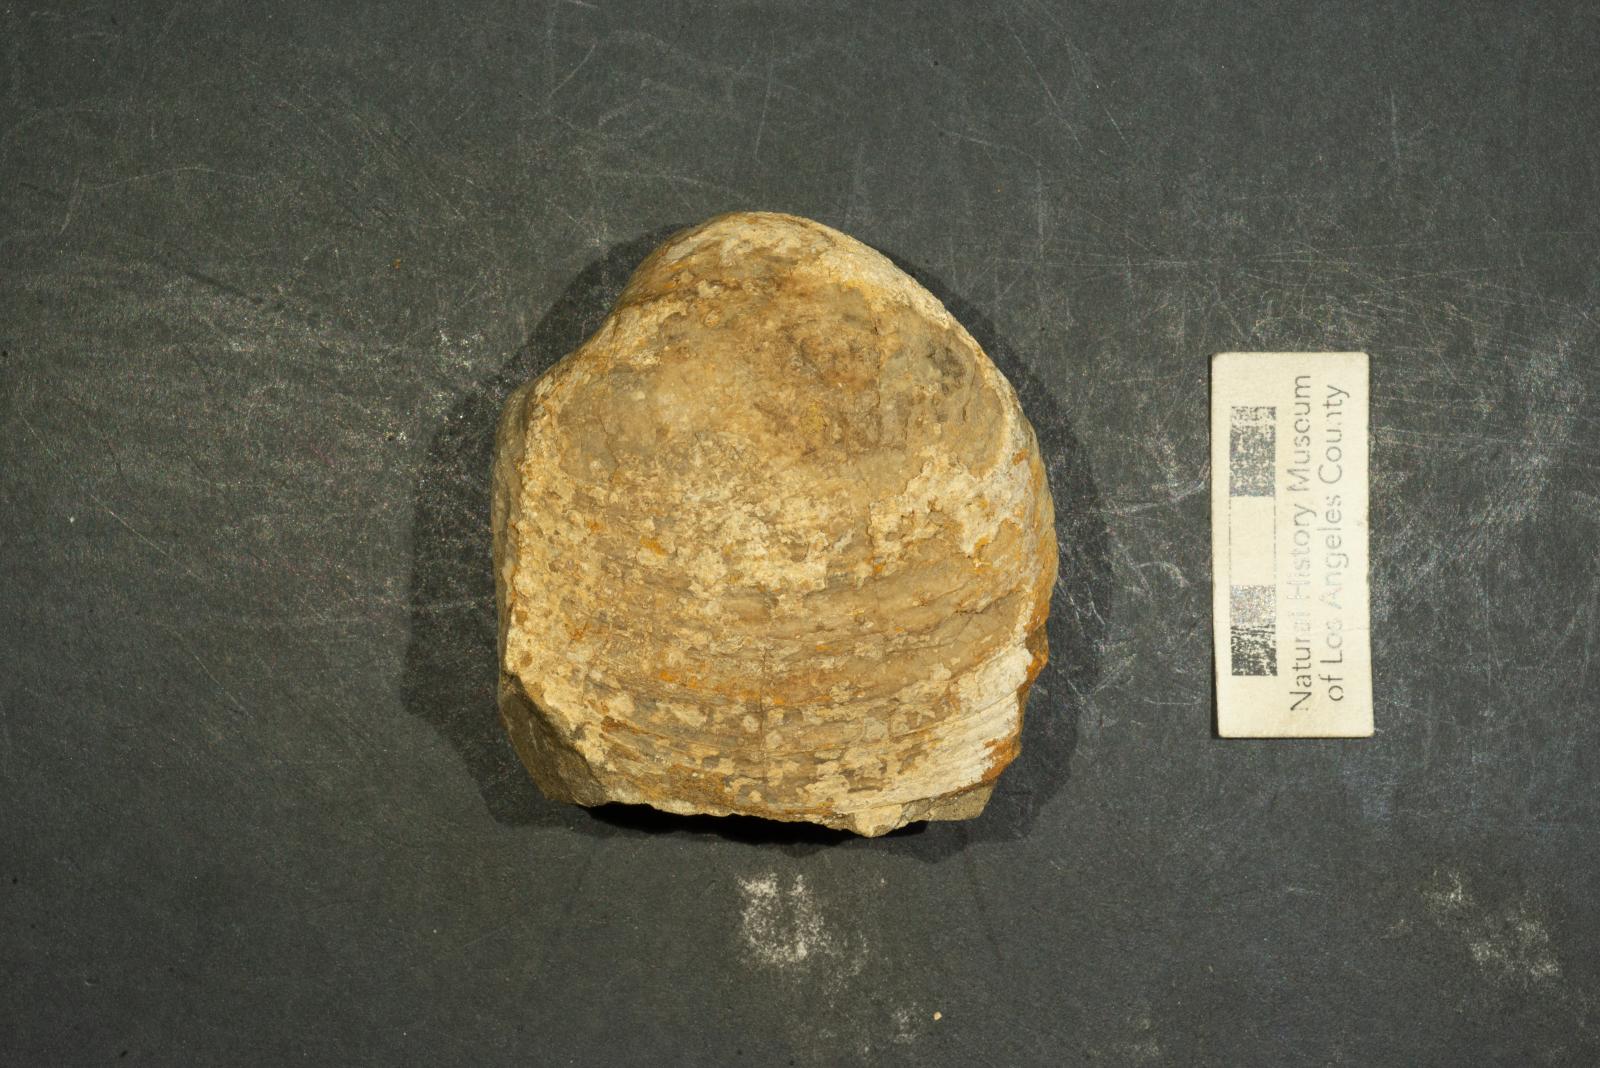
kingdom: Animalia
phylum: Mollusca
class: Bivalvia
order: Venerida
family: Veneridae
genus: Calva
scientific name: Calva marina
